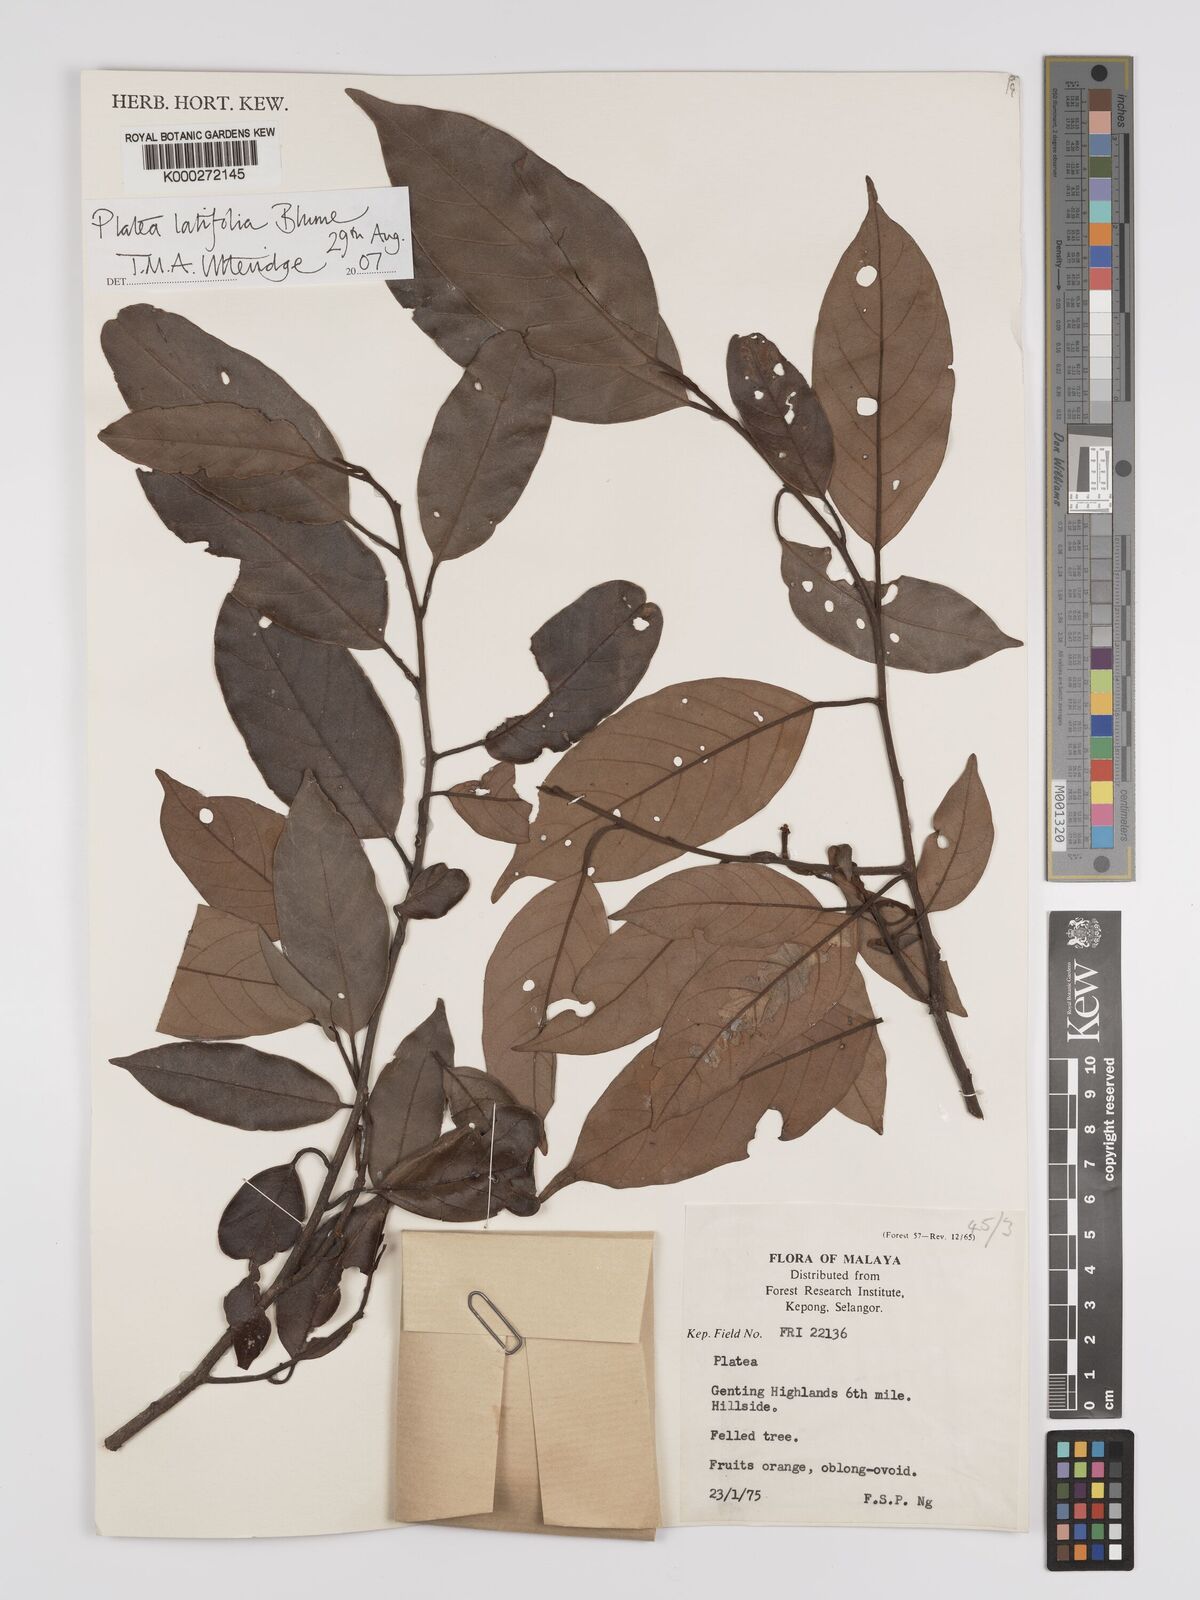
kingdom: Plantae
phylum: Tracheophyta
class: Magnoliopsida
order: Metteniusales
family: Metteniusaceae
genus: Platea
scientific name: Platea latifolia
